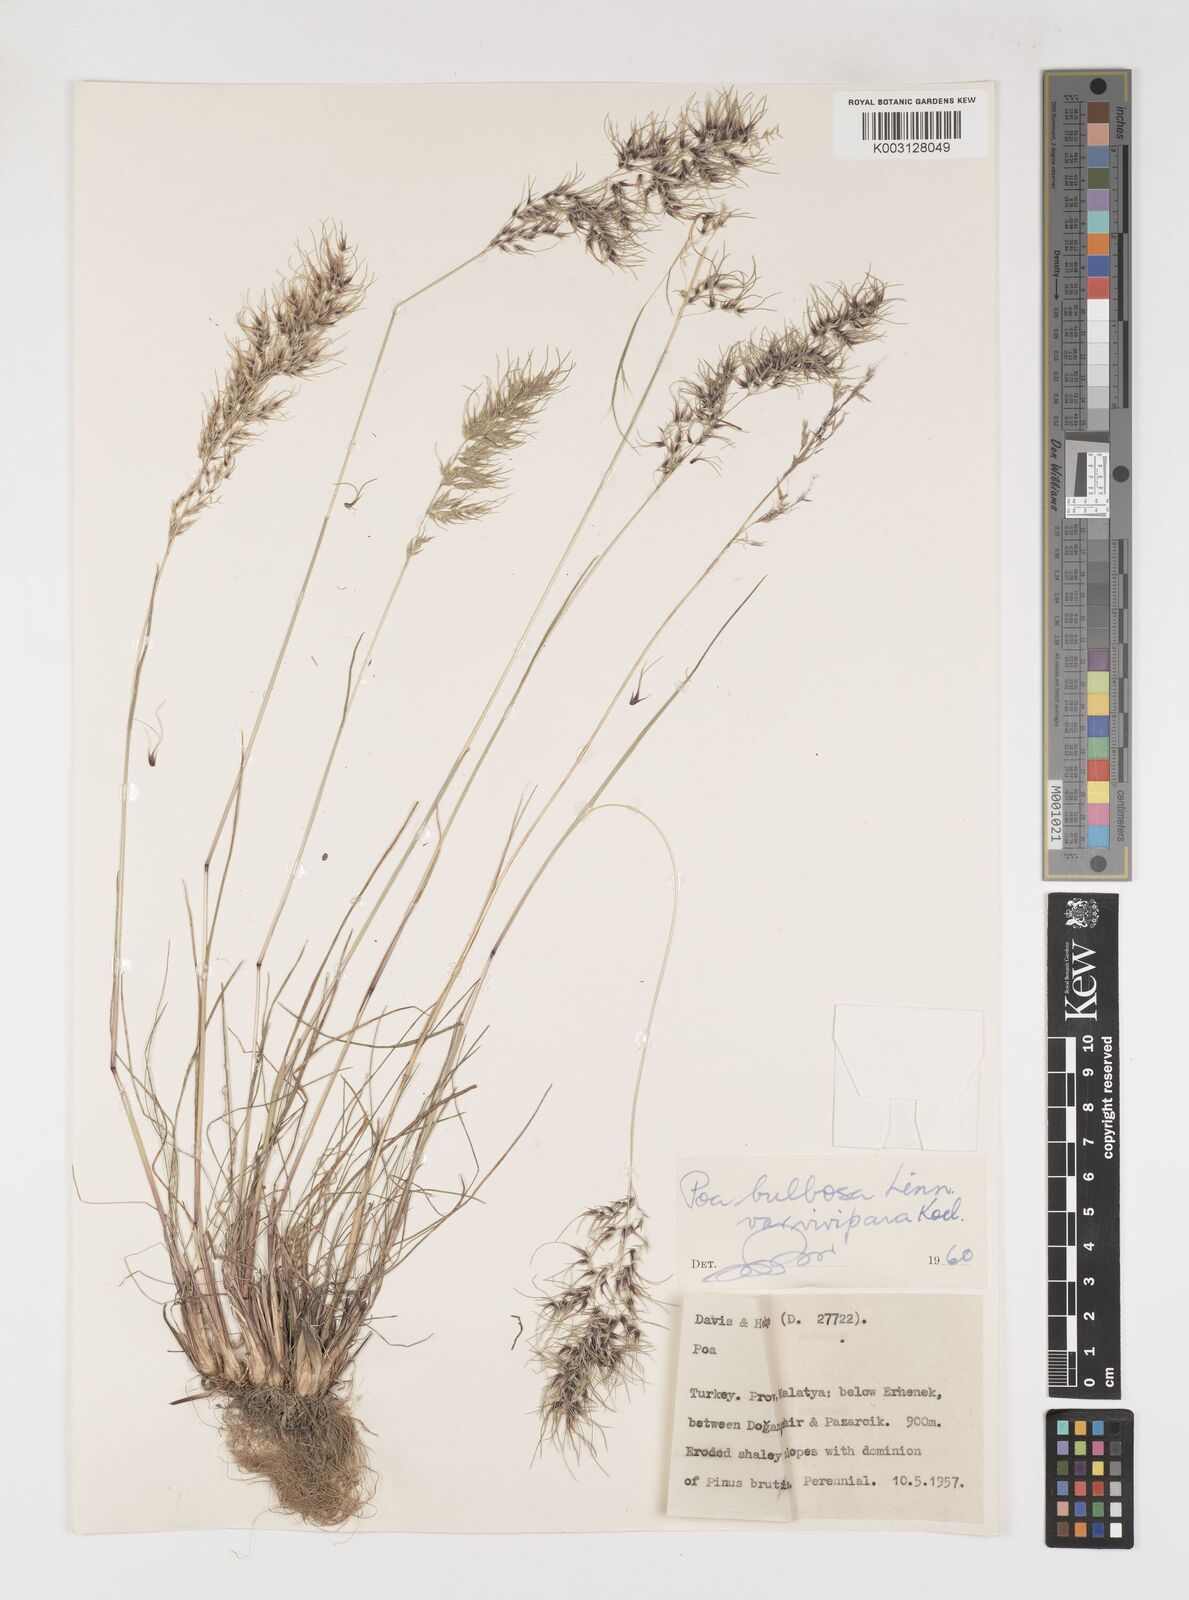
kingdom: Plantae
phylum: Tracheophyta
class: Liliopsida
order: Poales
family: Poaceae
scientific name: Poaceae
